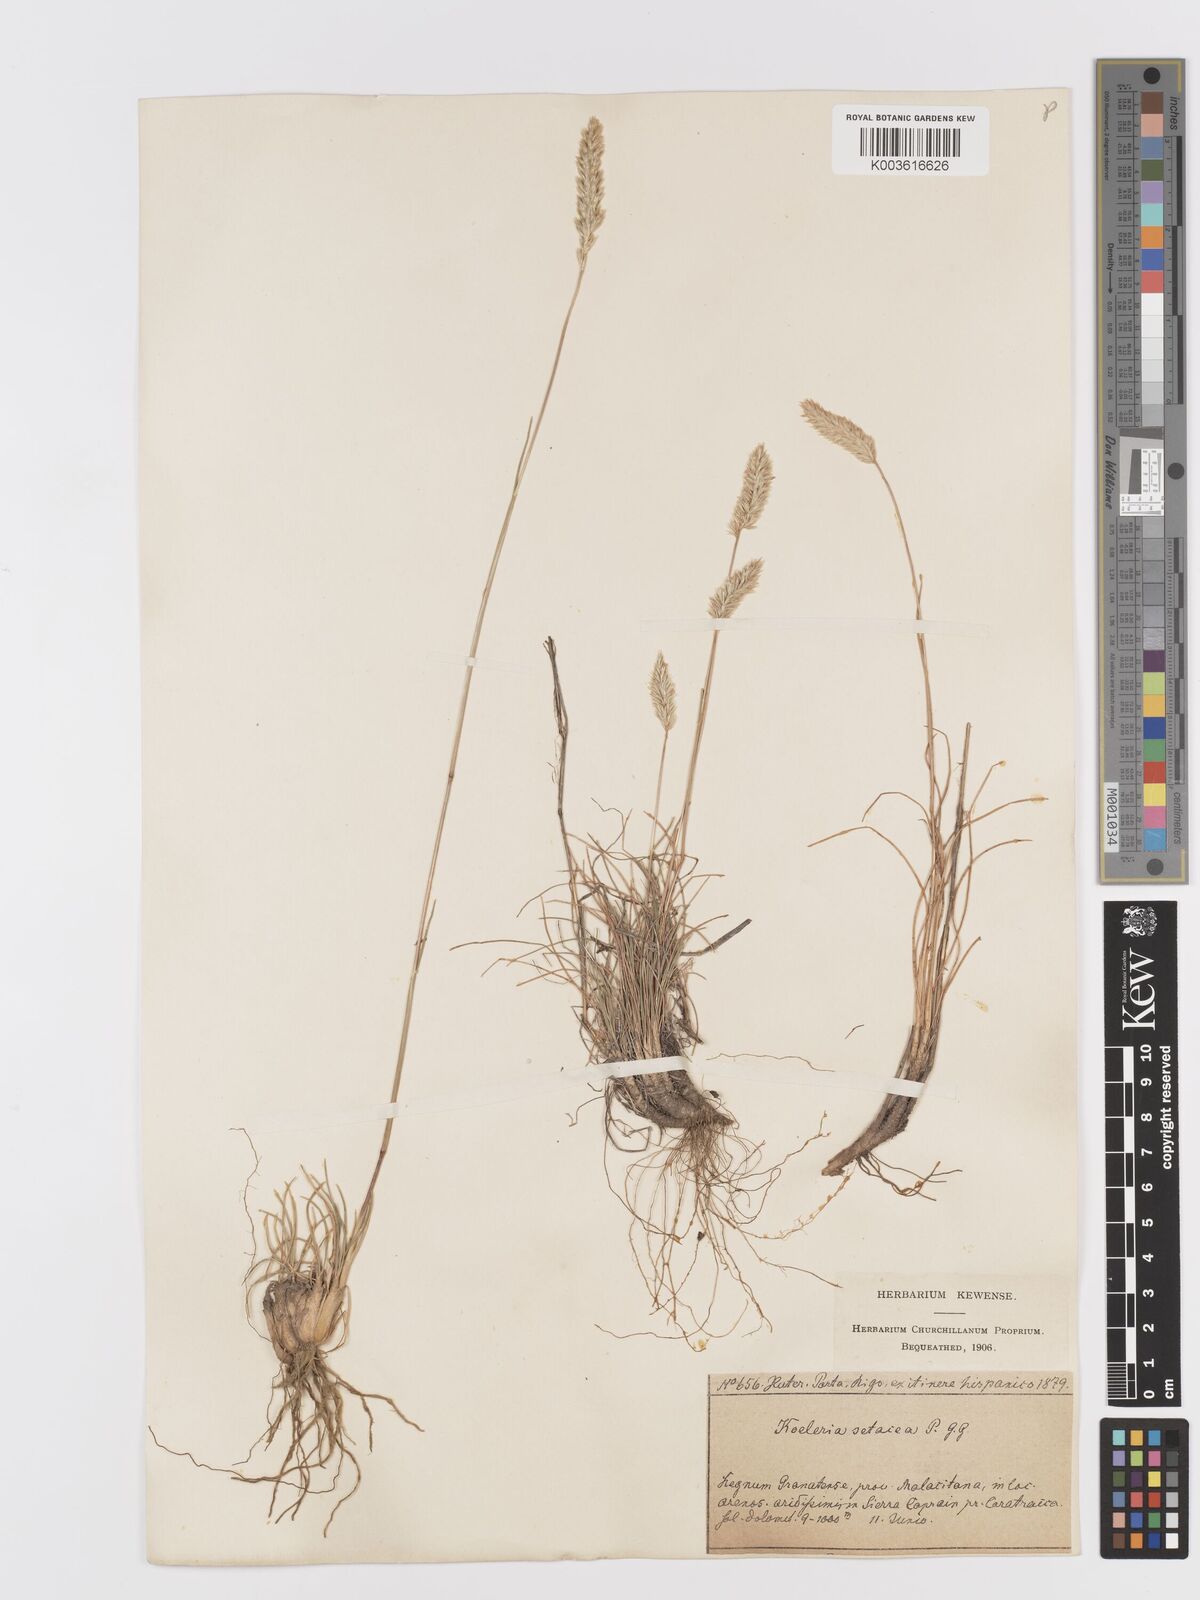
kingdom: Plantae
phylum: Tracheophyta
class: Liliopsida
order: Poales
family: Poaceae
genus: Koeleria
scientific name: Koeleria vallesiana
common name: Somerset hair-grass
